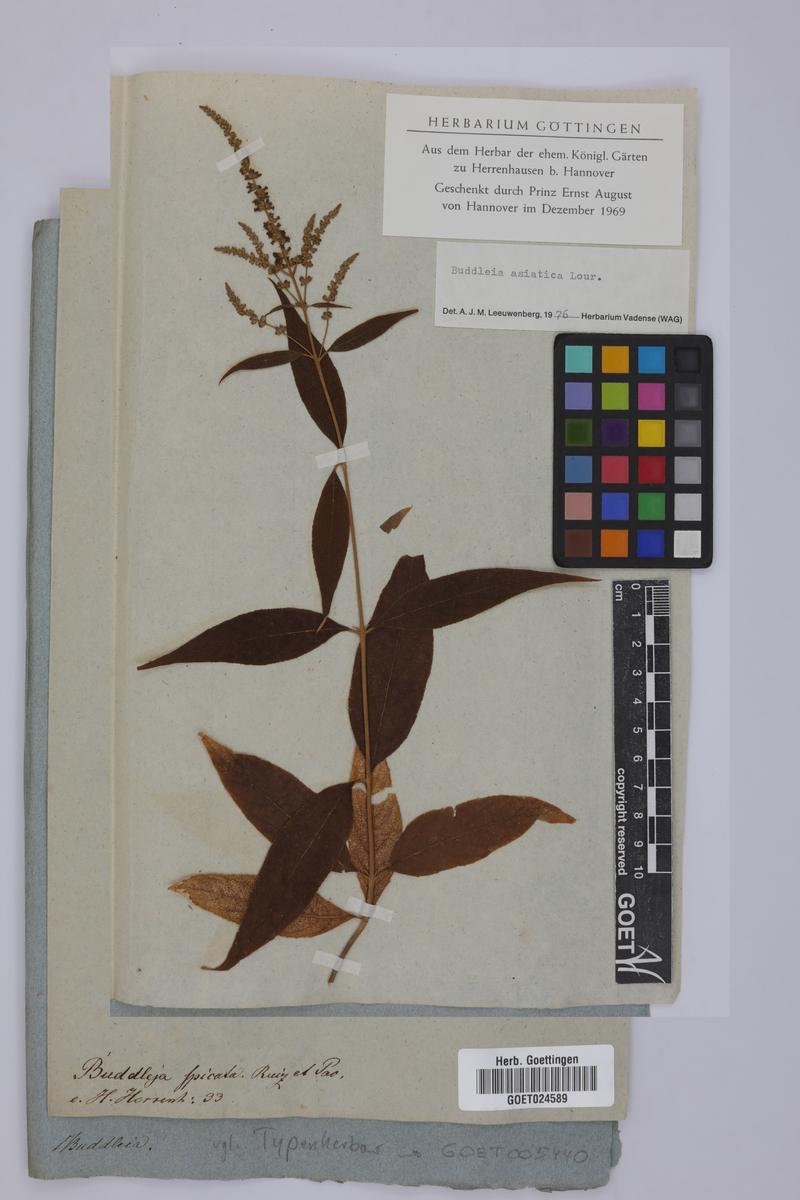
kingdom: Plantae
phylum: Tracheophyta
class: Magnoliopsida
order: Lamiales
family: Scrophulariaceae
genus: Buddleja
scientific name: Buddleja asiatica
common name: Dog tail
